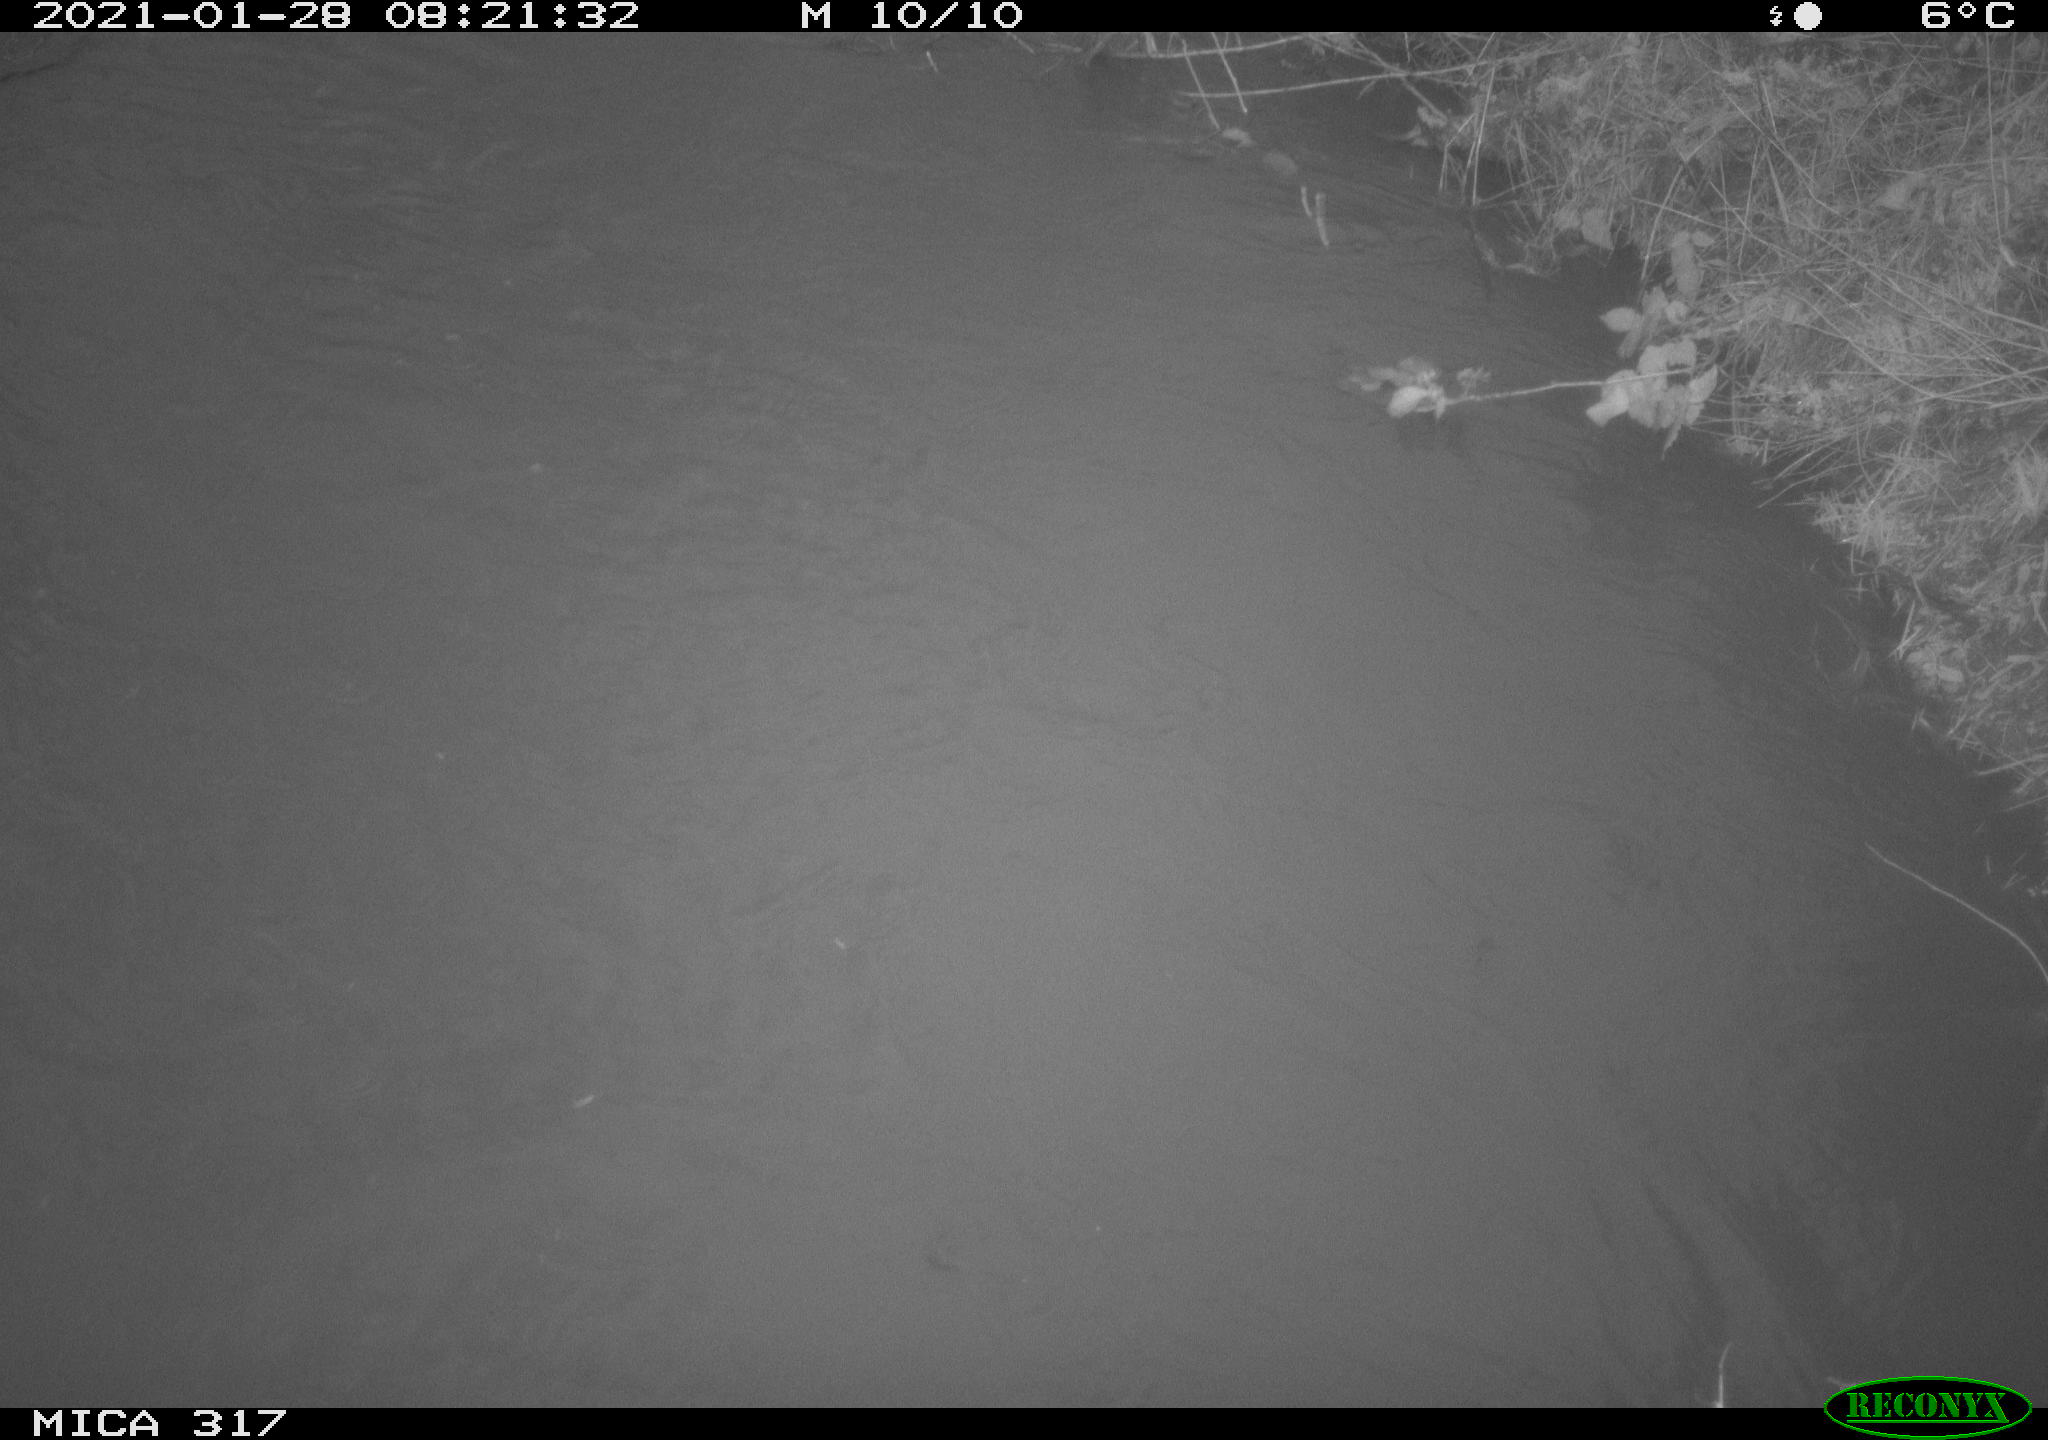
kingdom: Animalia
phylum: Chordata
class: Aves
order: Anseriformes
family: Anatidae
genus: Anas
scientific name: Anas platyrhynchos
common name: Mallard
